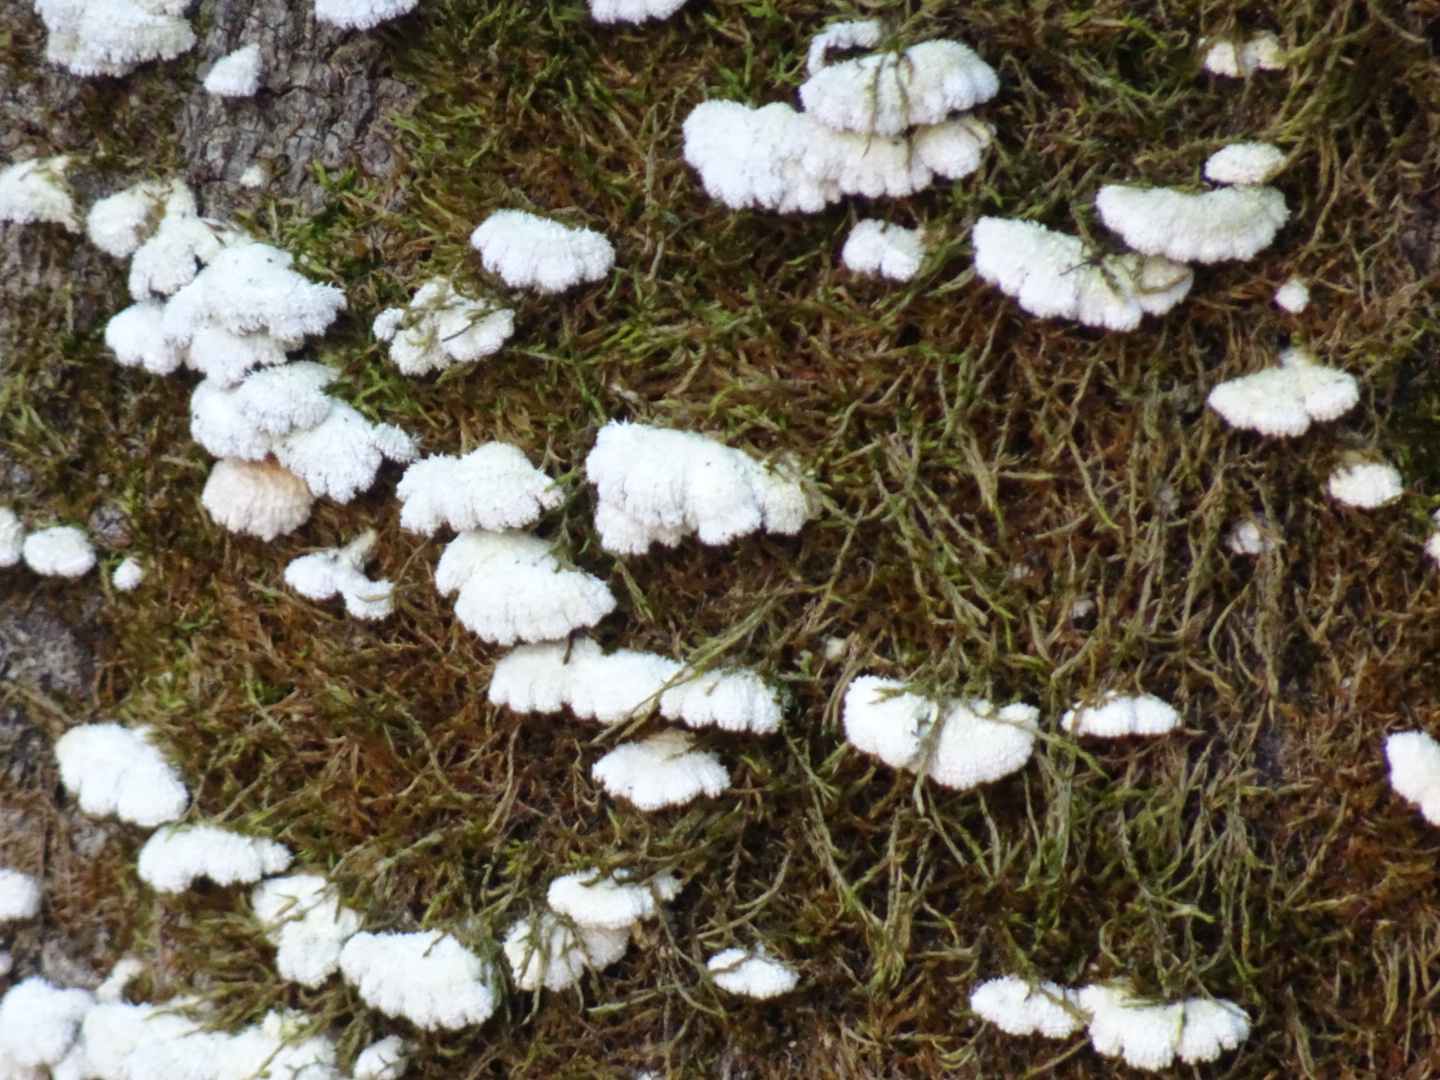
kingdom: Fungi
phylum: Basidiomycota
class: Agaricomycetes
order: Agaricales
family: Schizophyllaceae
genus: Schizophyllum
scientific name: Schizophyllum commune
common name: kløvblad
